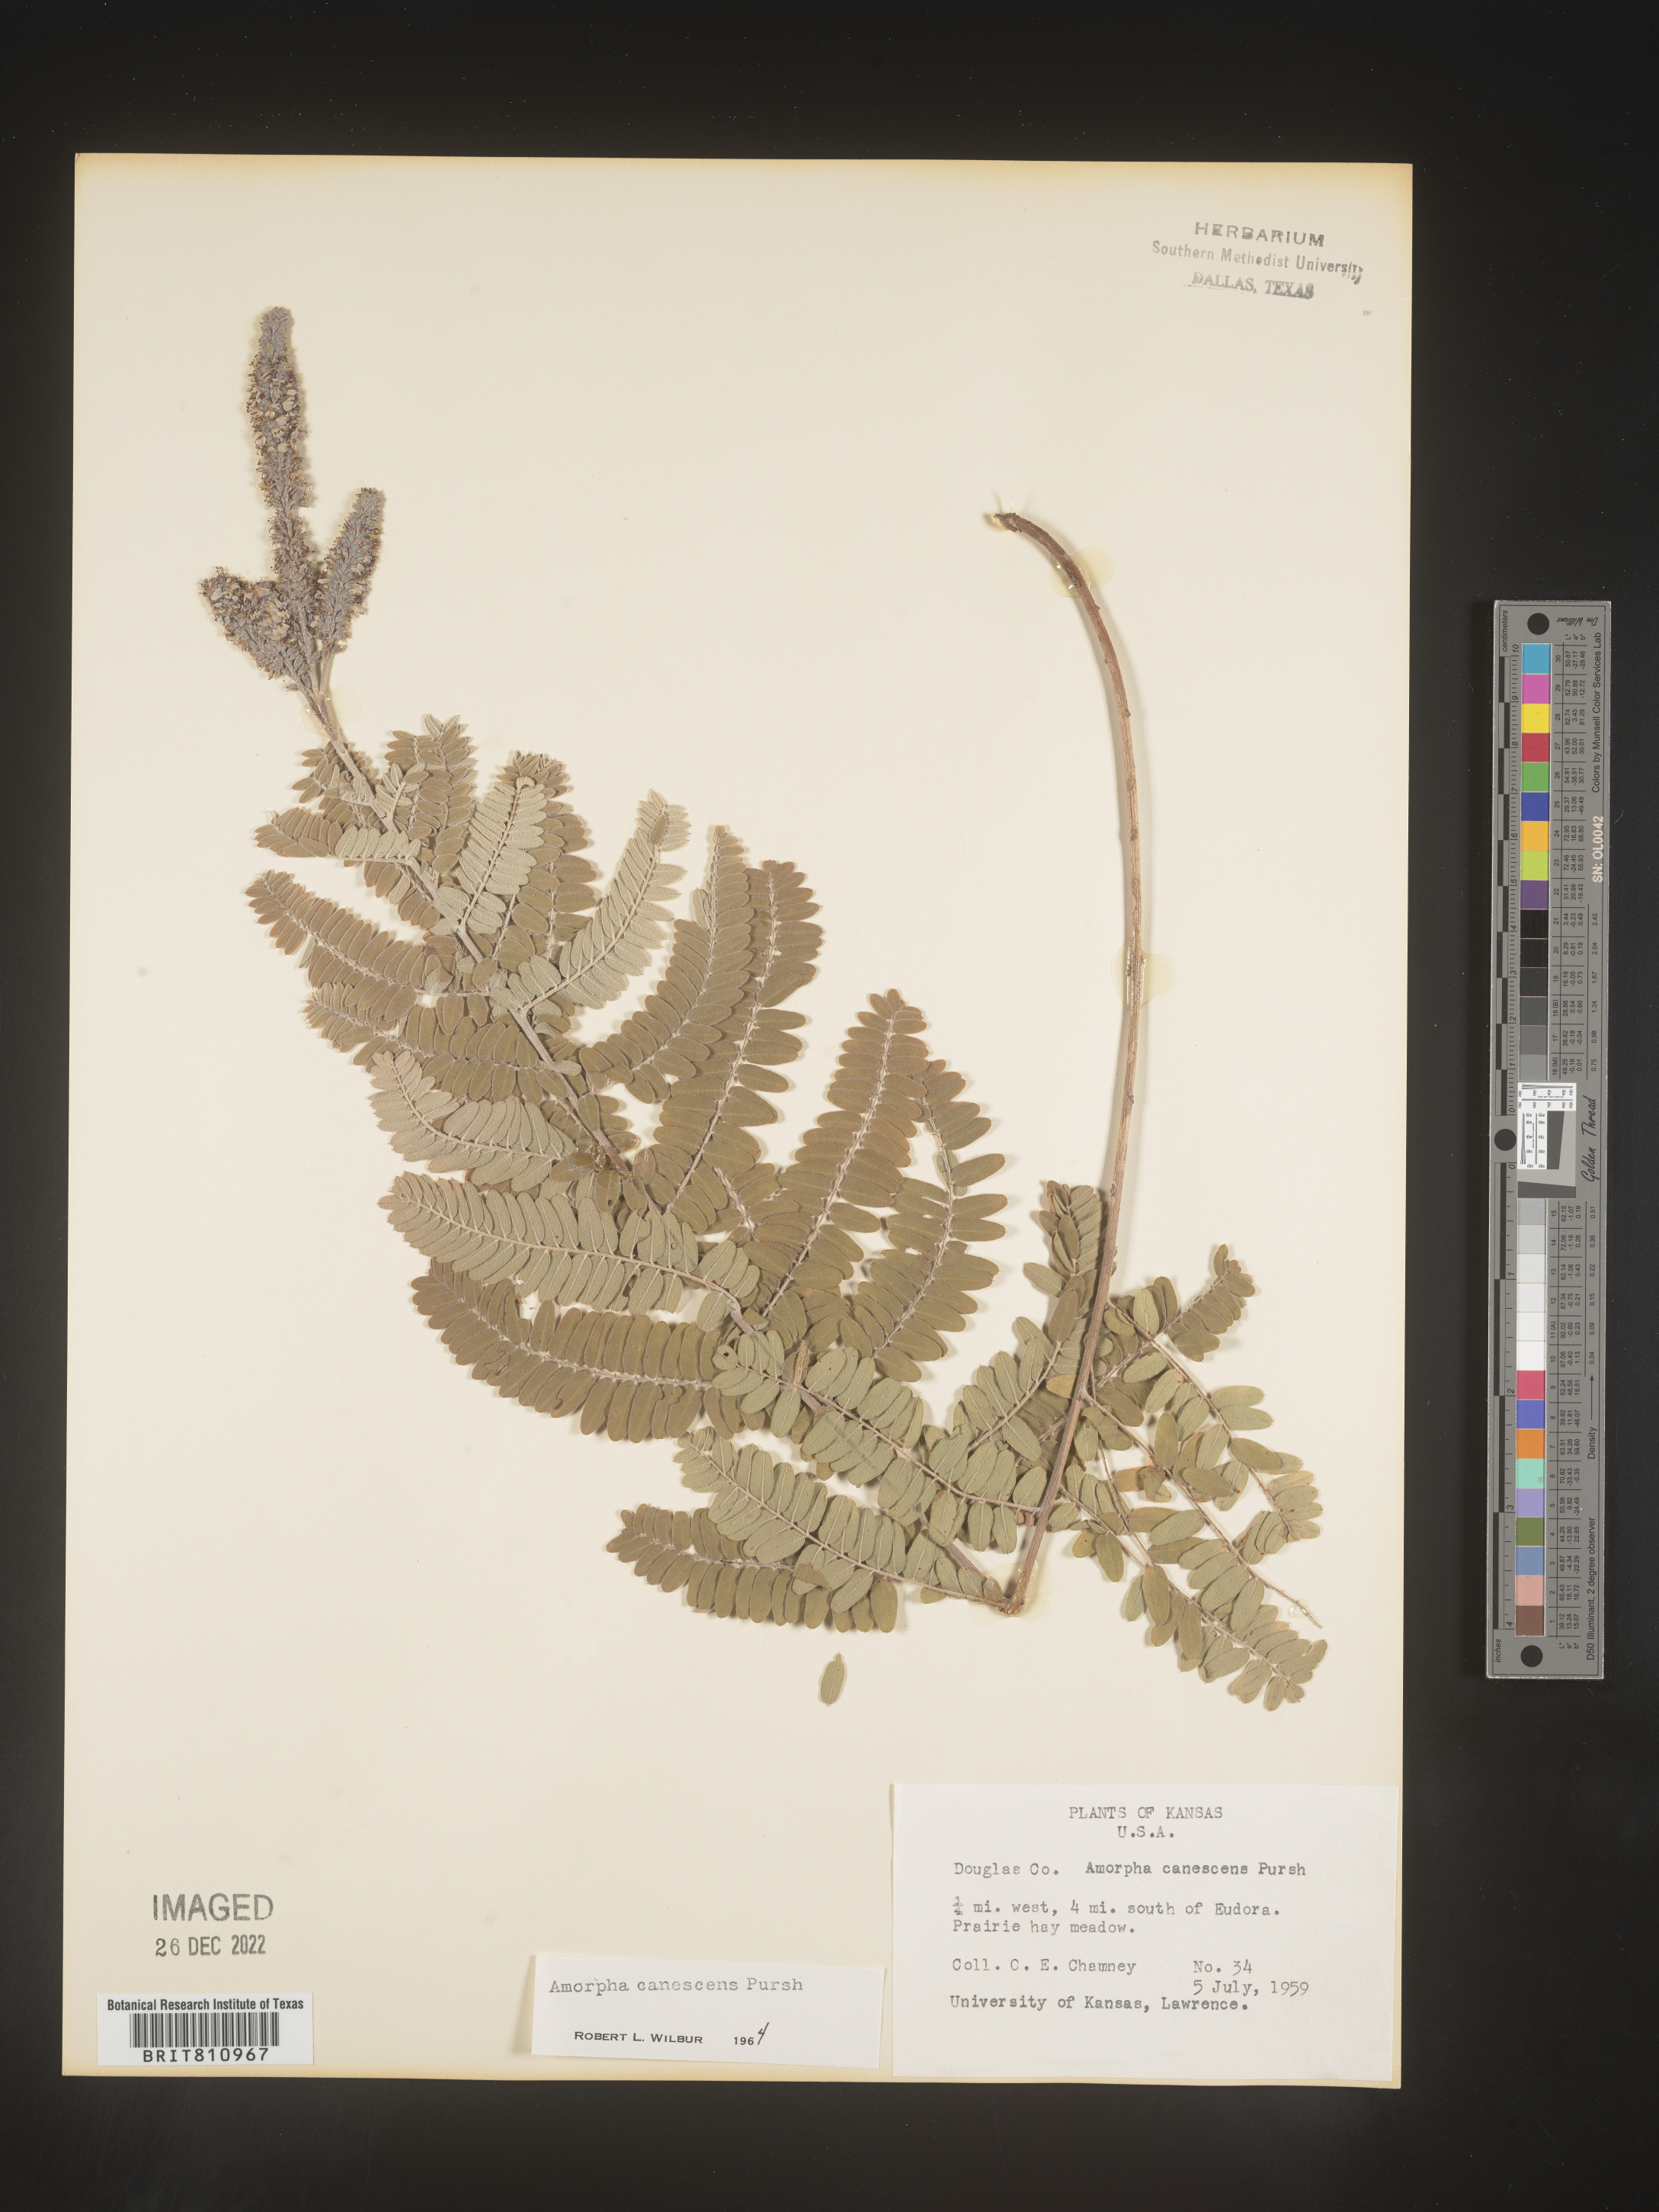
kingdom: Plantae
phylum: Tracheophyta
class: Magnoliopsida
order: Fabales
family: Fabaceae
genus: Amorpha
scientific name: Amorpha canescens
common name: Leadplant
